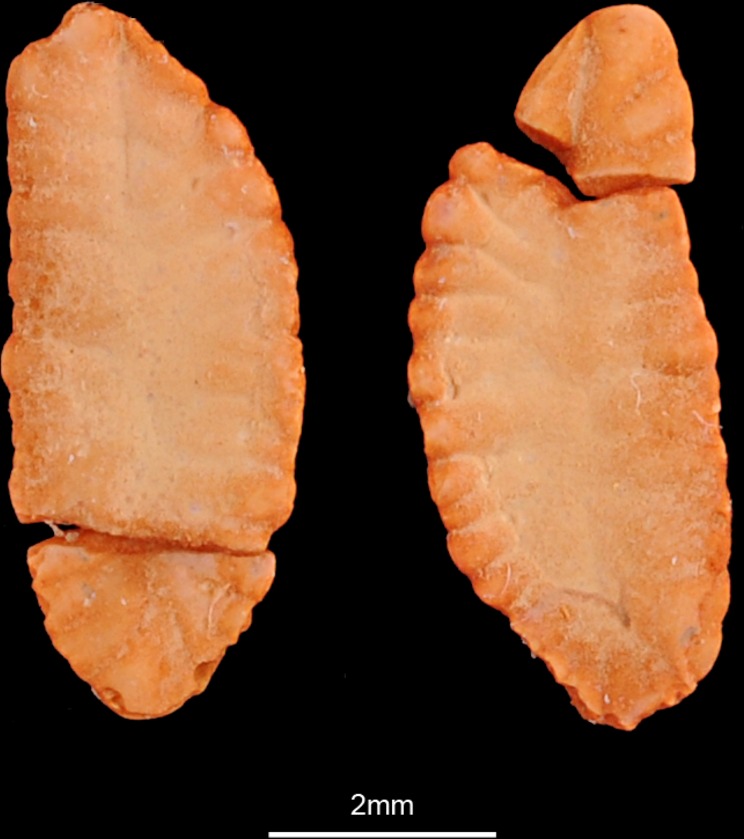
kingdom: Animalia
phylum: Chordata
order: Gadiformes
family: Lotidae
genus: Lota
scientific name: Lota lota
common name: Burbot
